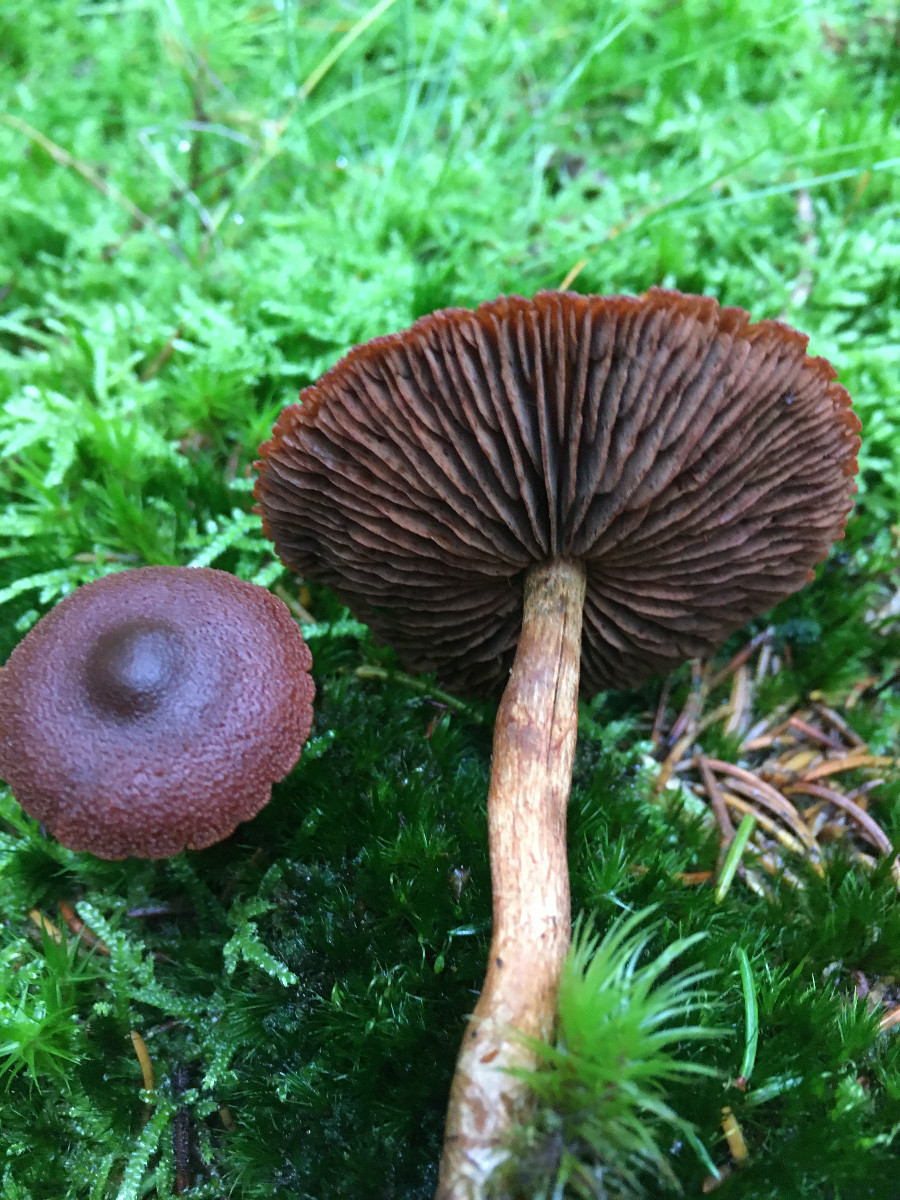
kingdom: Fungi
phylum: Basidiomycota
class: Agaricomycetes
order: Agaricales
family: Cortinariaceae
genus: Cortinarius
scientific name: Cortinarius
